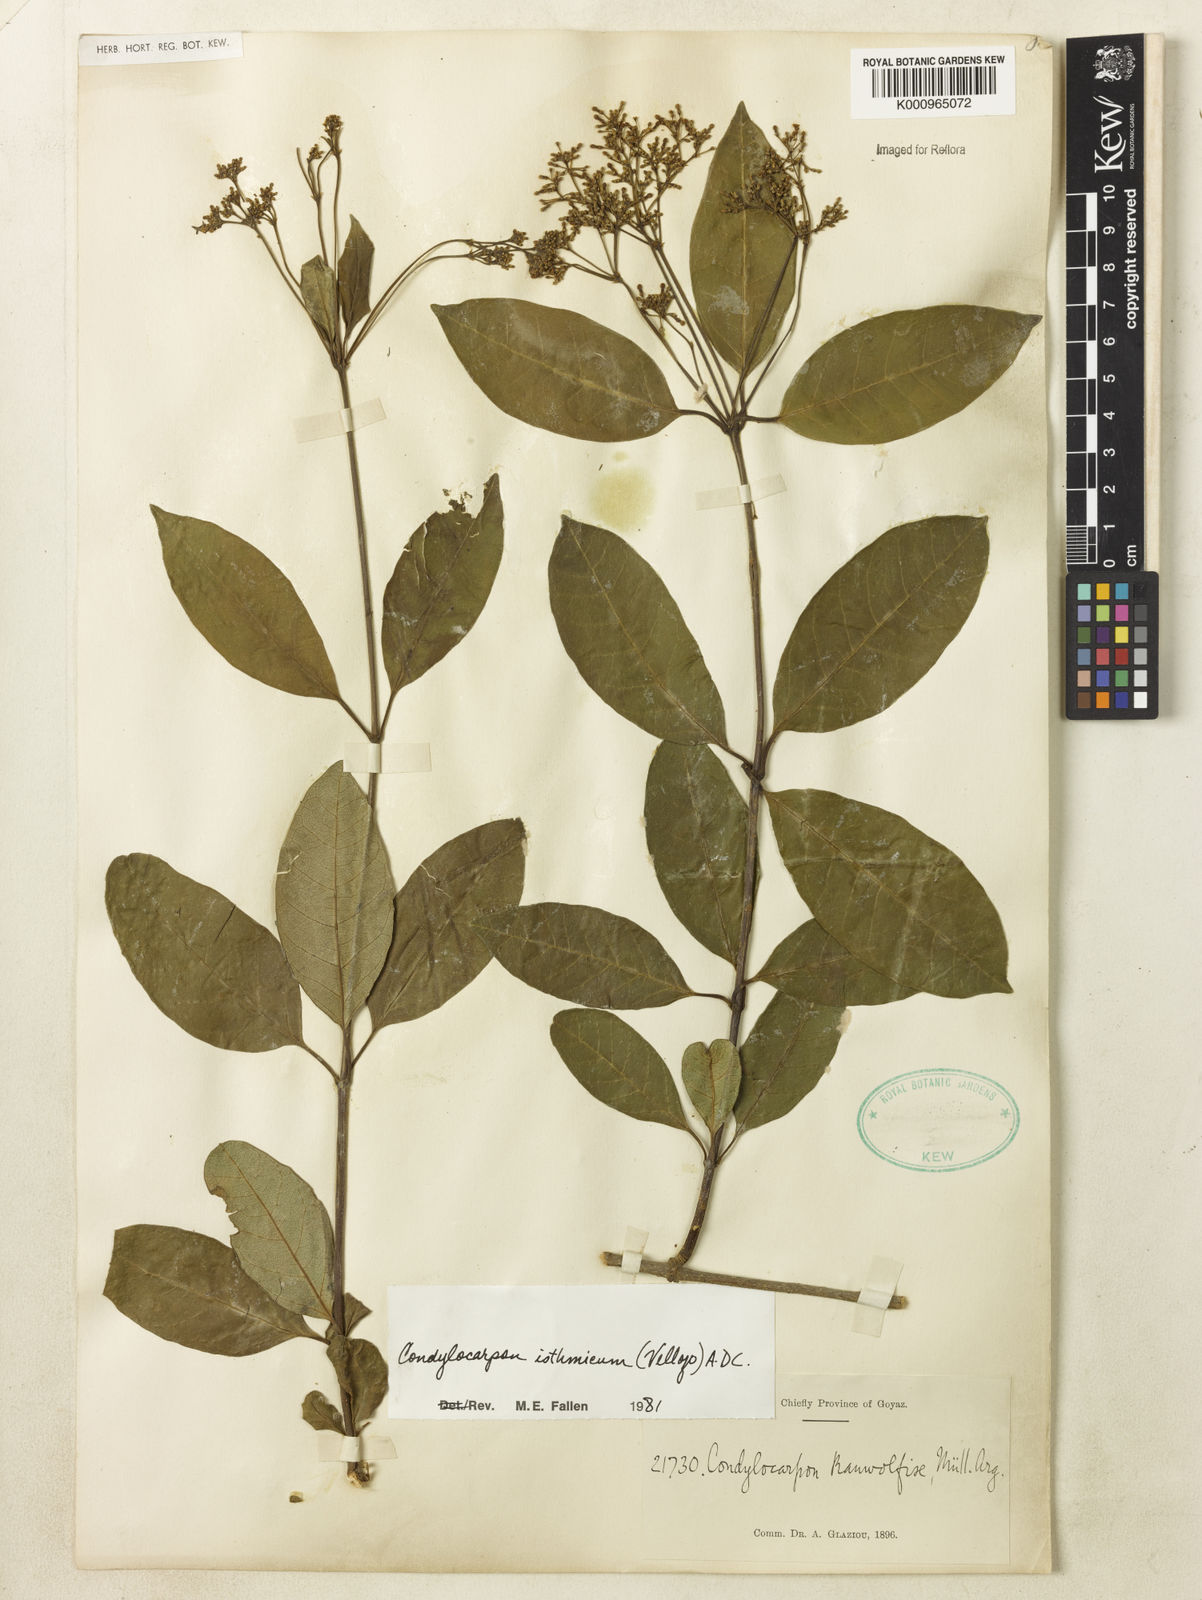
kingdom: Plantae
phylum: Tracheophyta
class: Magnoliopsida
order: Gentianales
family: Apocynaceae
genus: Condylocarpon
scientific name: Condylocarpon isthmicum
